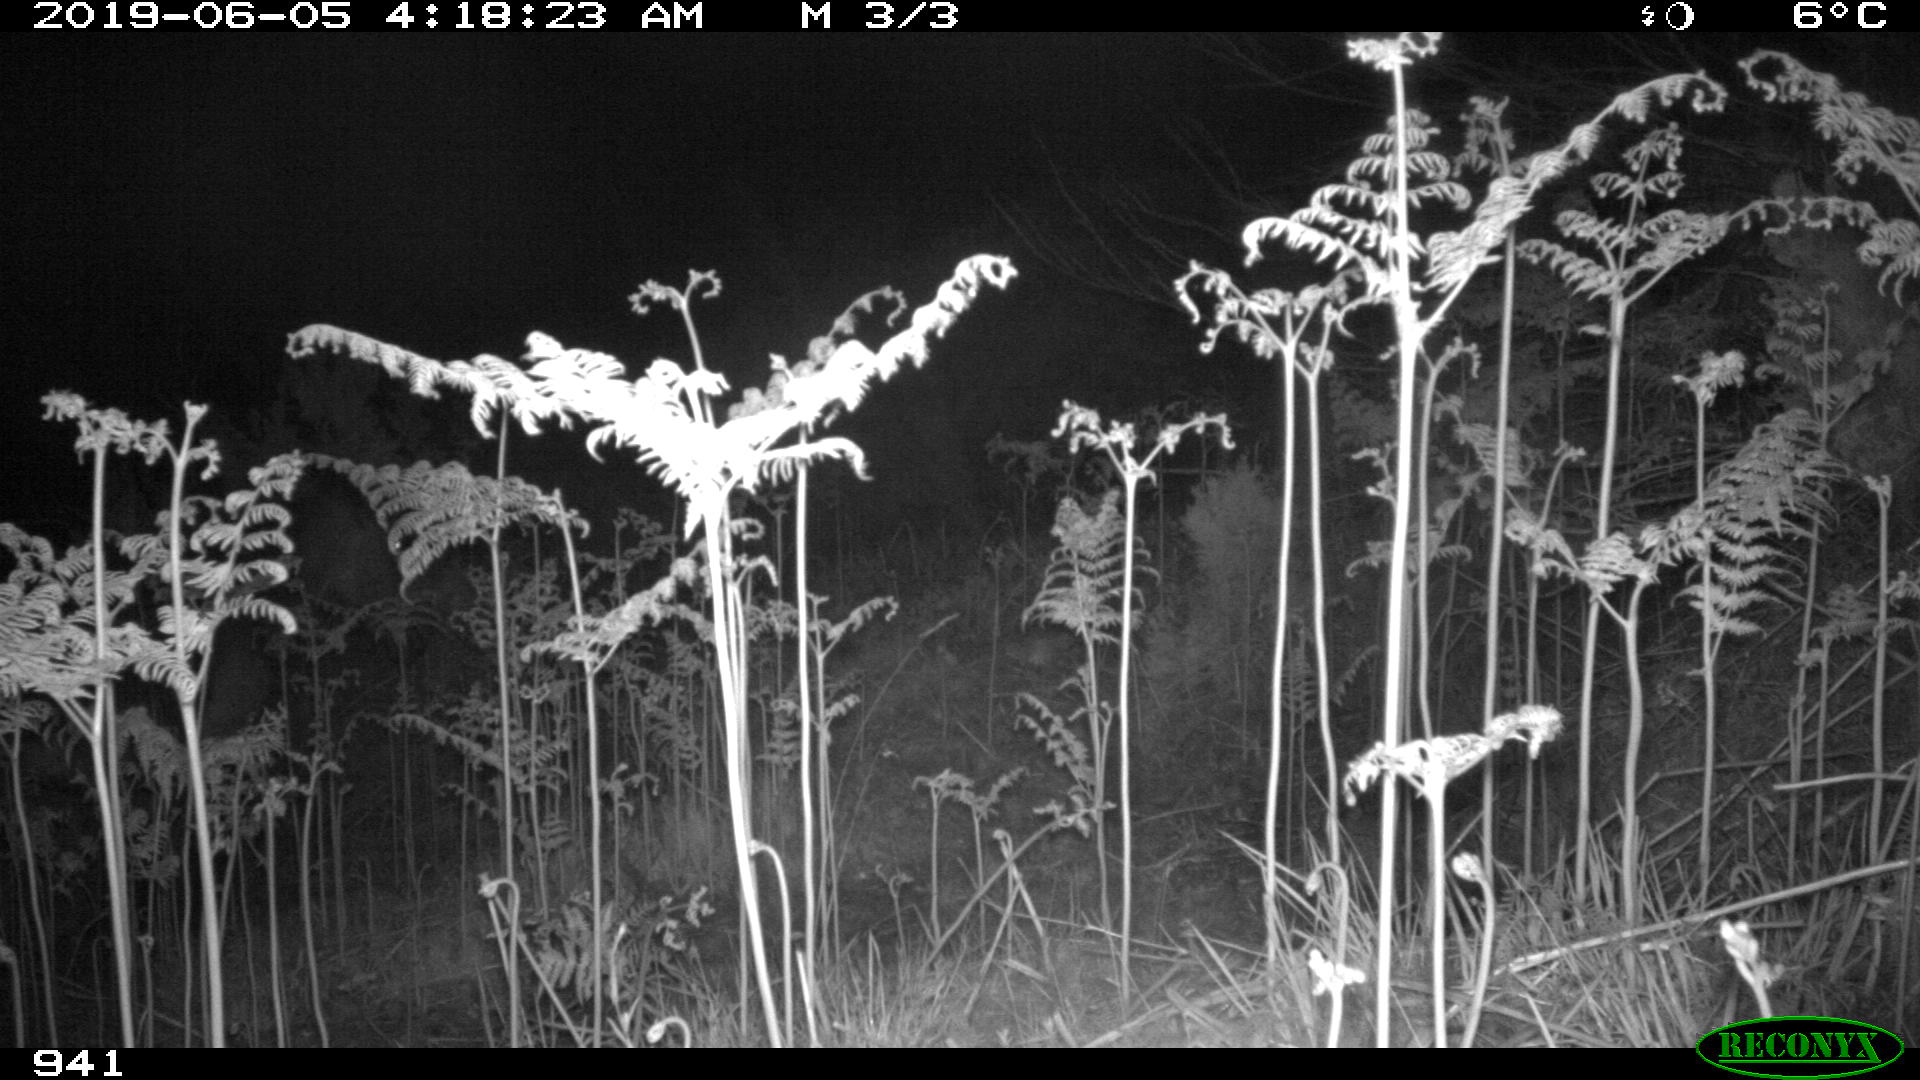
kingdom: Animalia
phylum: Chordata
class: Mammalia
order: Perissodactyla
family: Equidae
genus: Equus
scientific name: Equus caballus
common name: Horse
